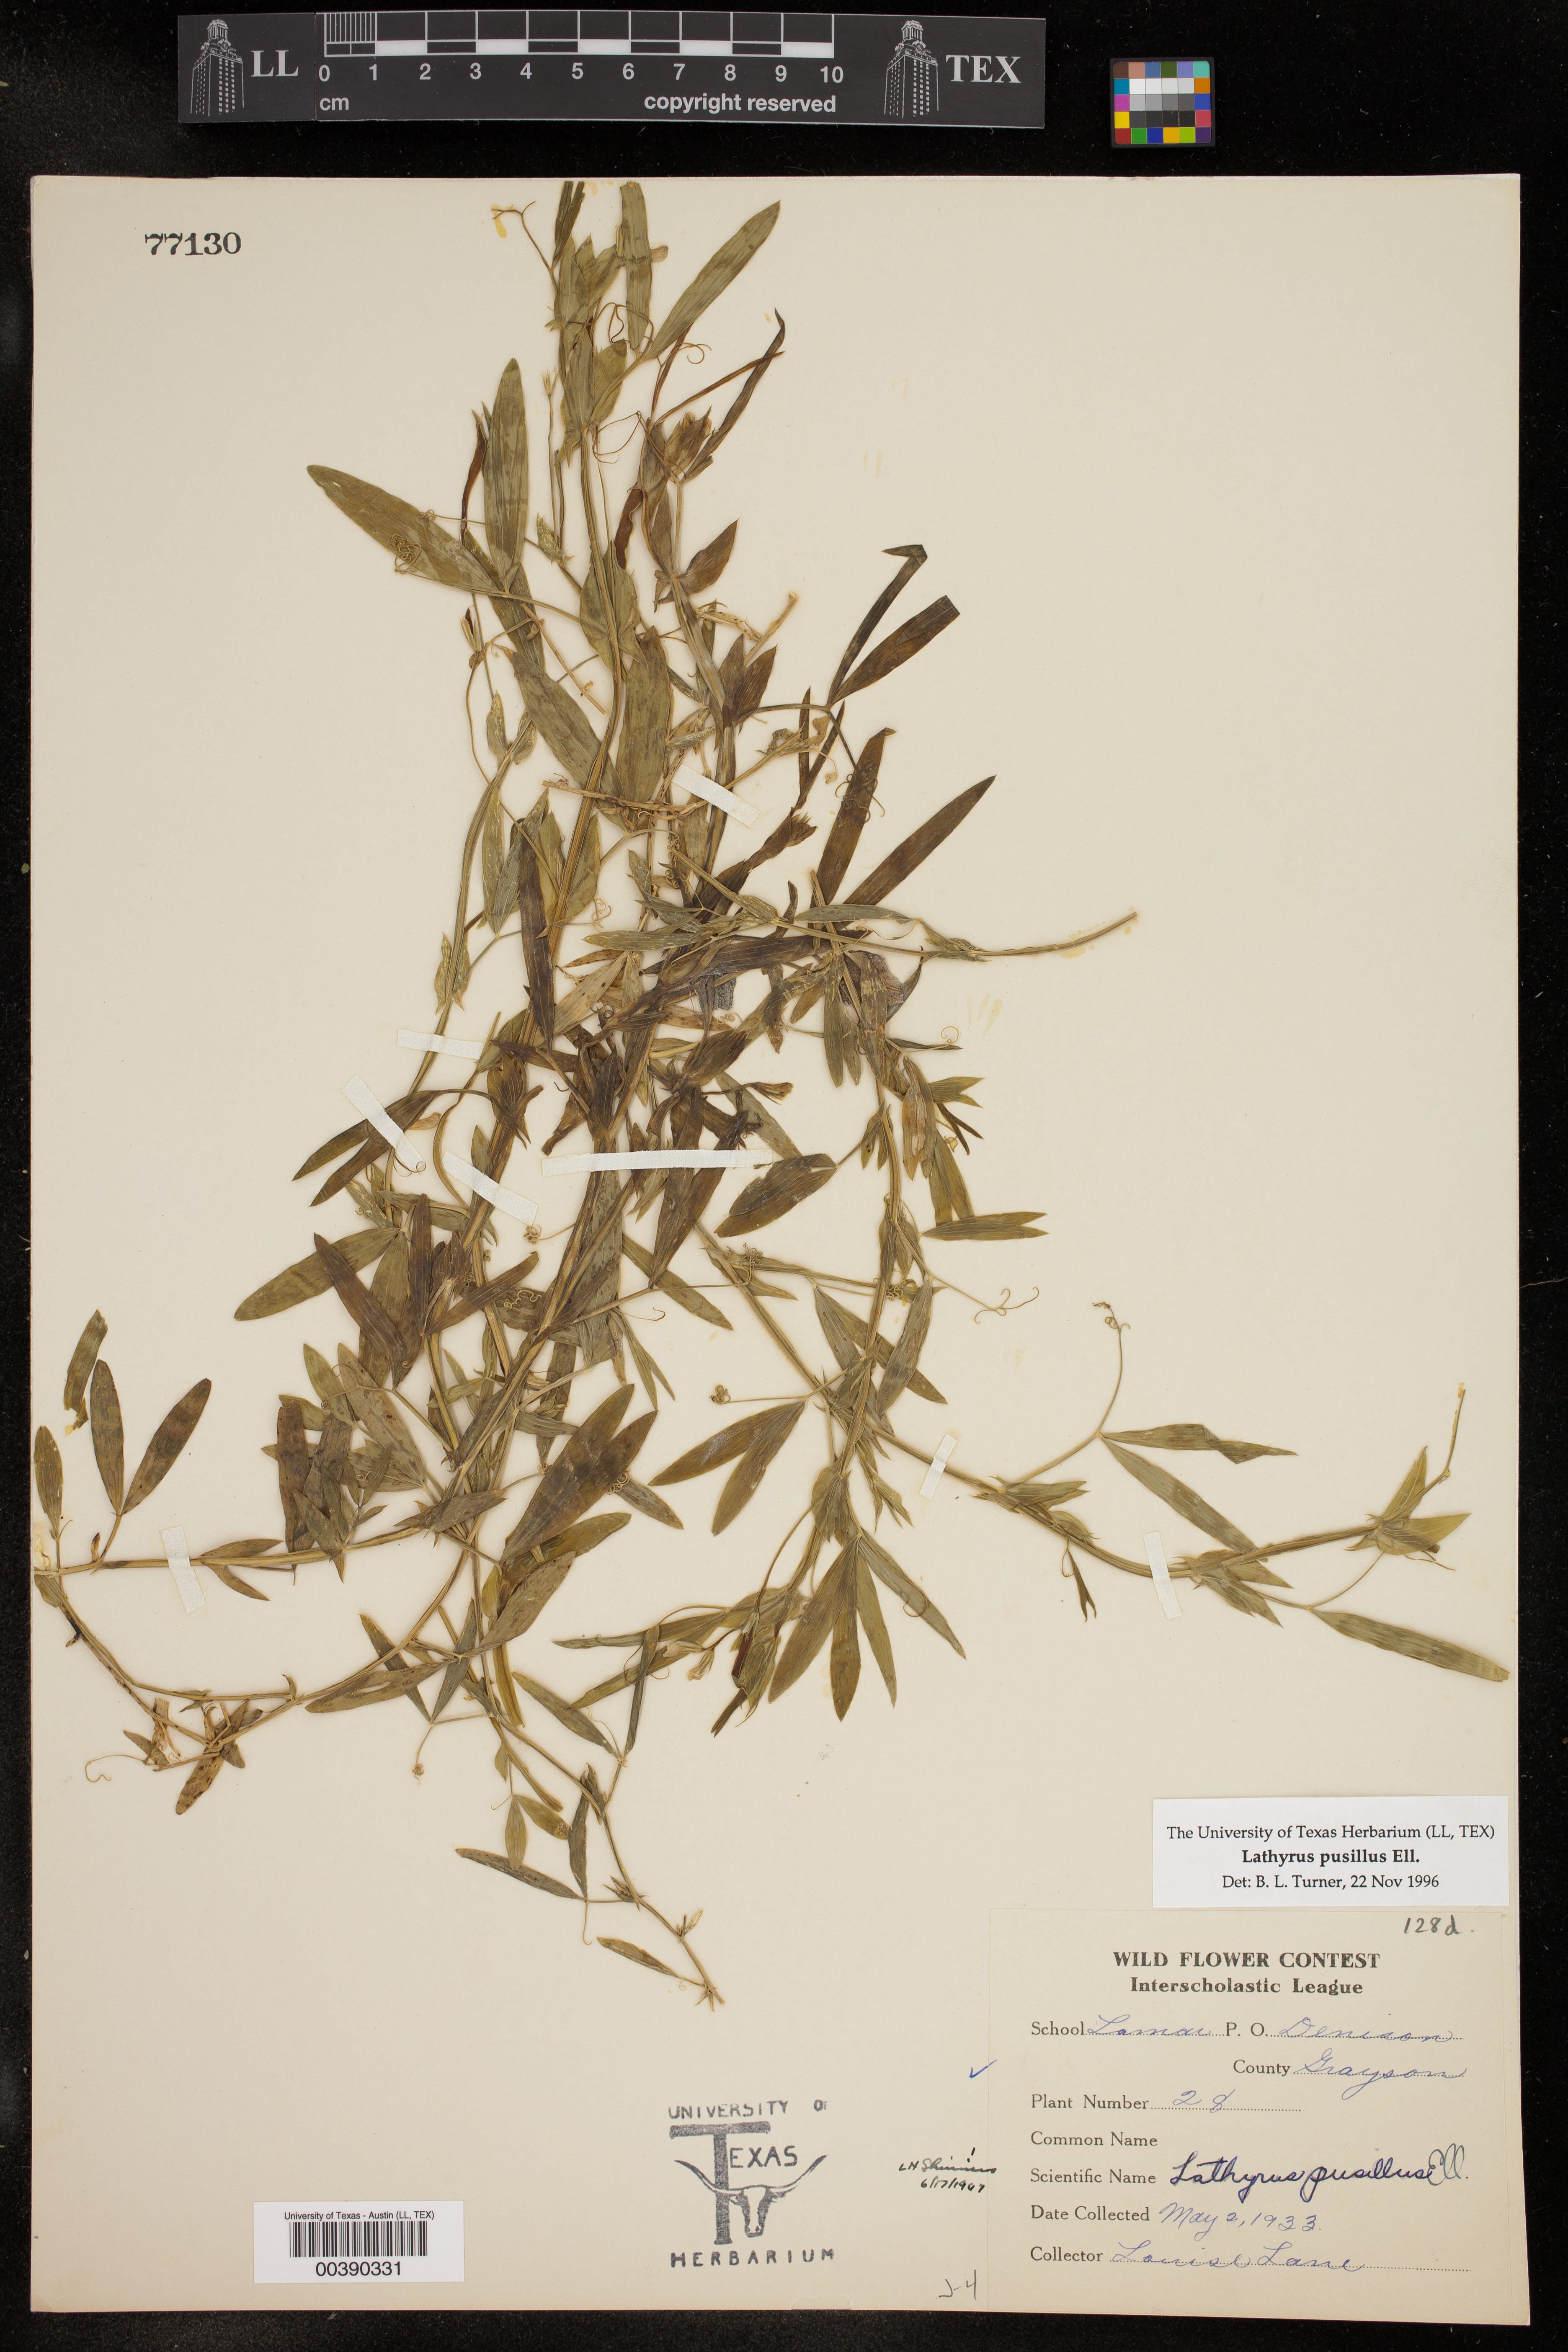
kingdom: Plantae
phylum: Tracheophyta
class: Magnoliopsida
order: Fabales
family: Fabaceae
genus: Lathyrus
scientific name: Lathyrus pusillus
